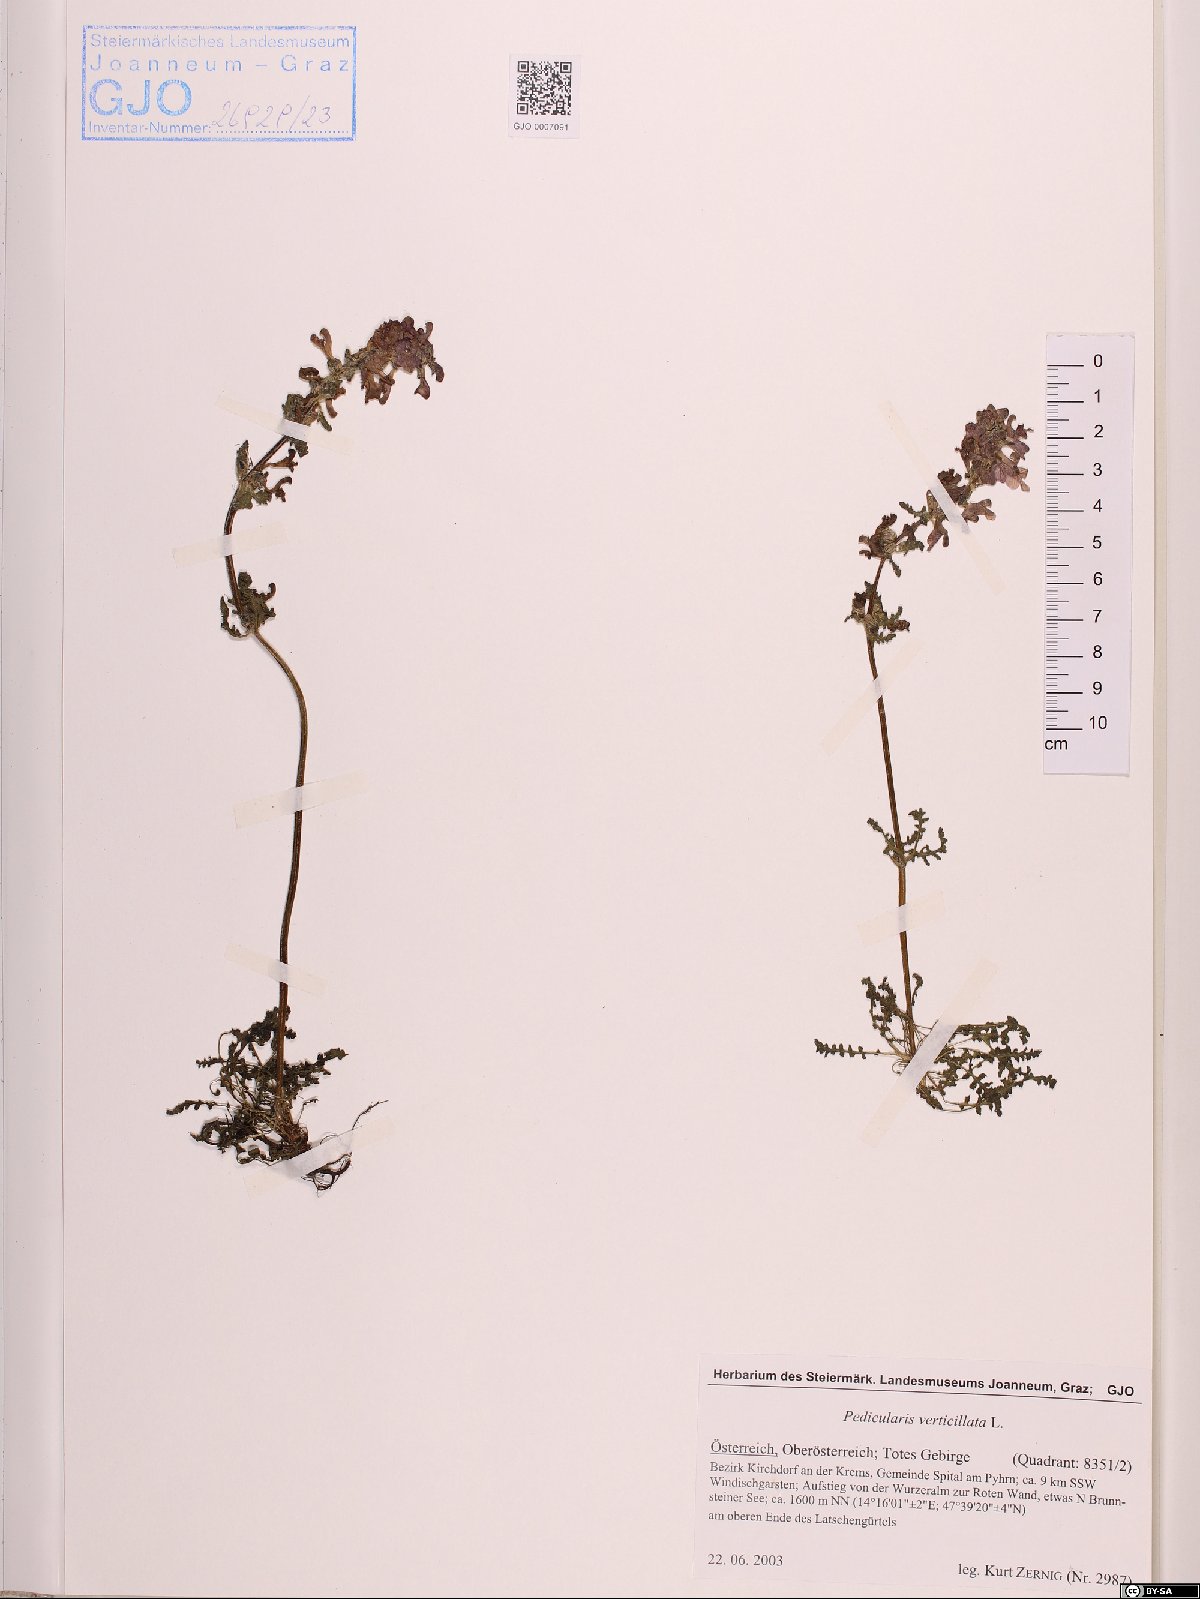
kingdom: Plantae
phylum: Tracheophyta
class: Magnoliopsida
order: Lamiales
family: Orobanchaceae
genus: Pedicularis
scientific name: Pedicularis verticillata
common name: Whorled lousewort
